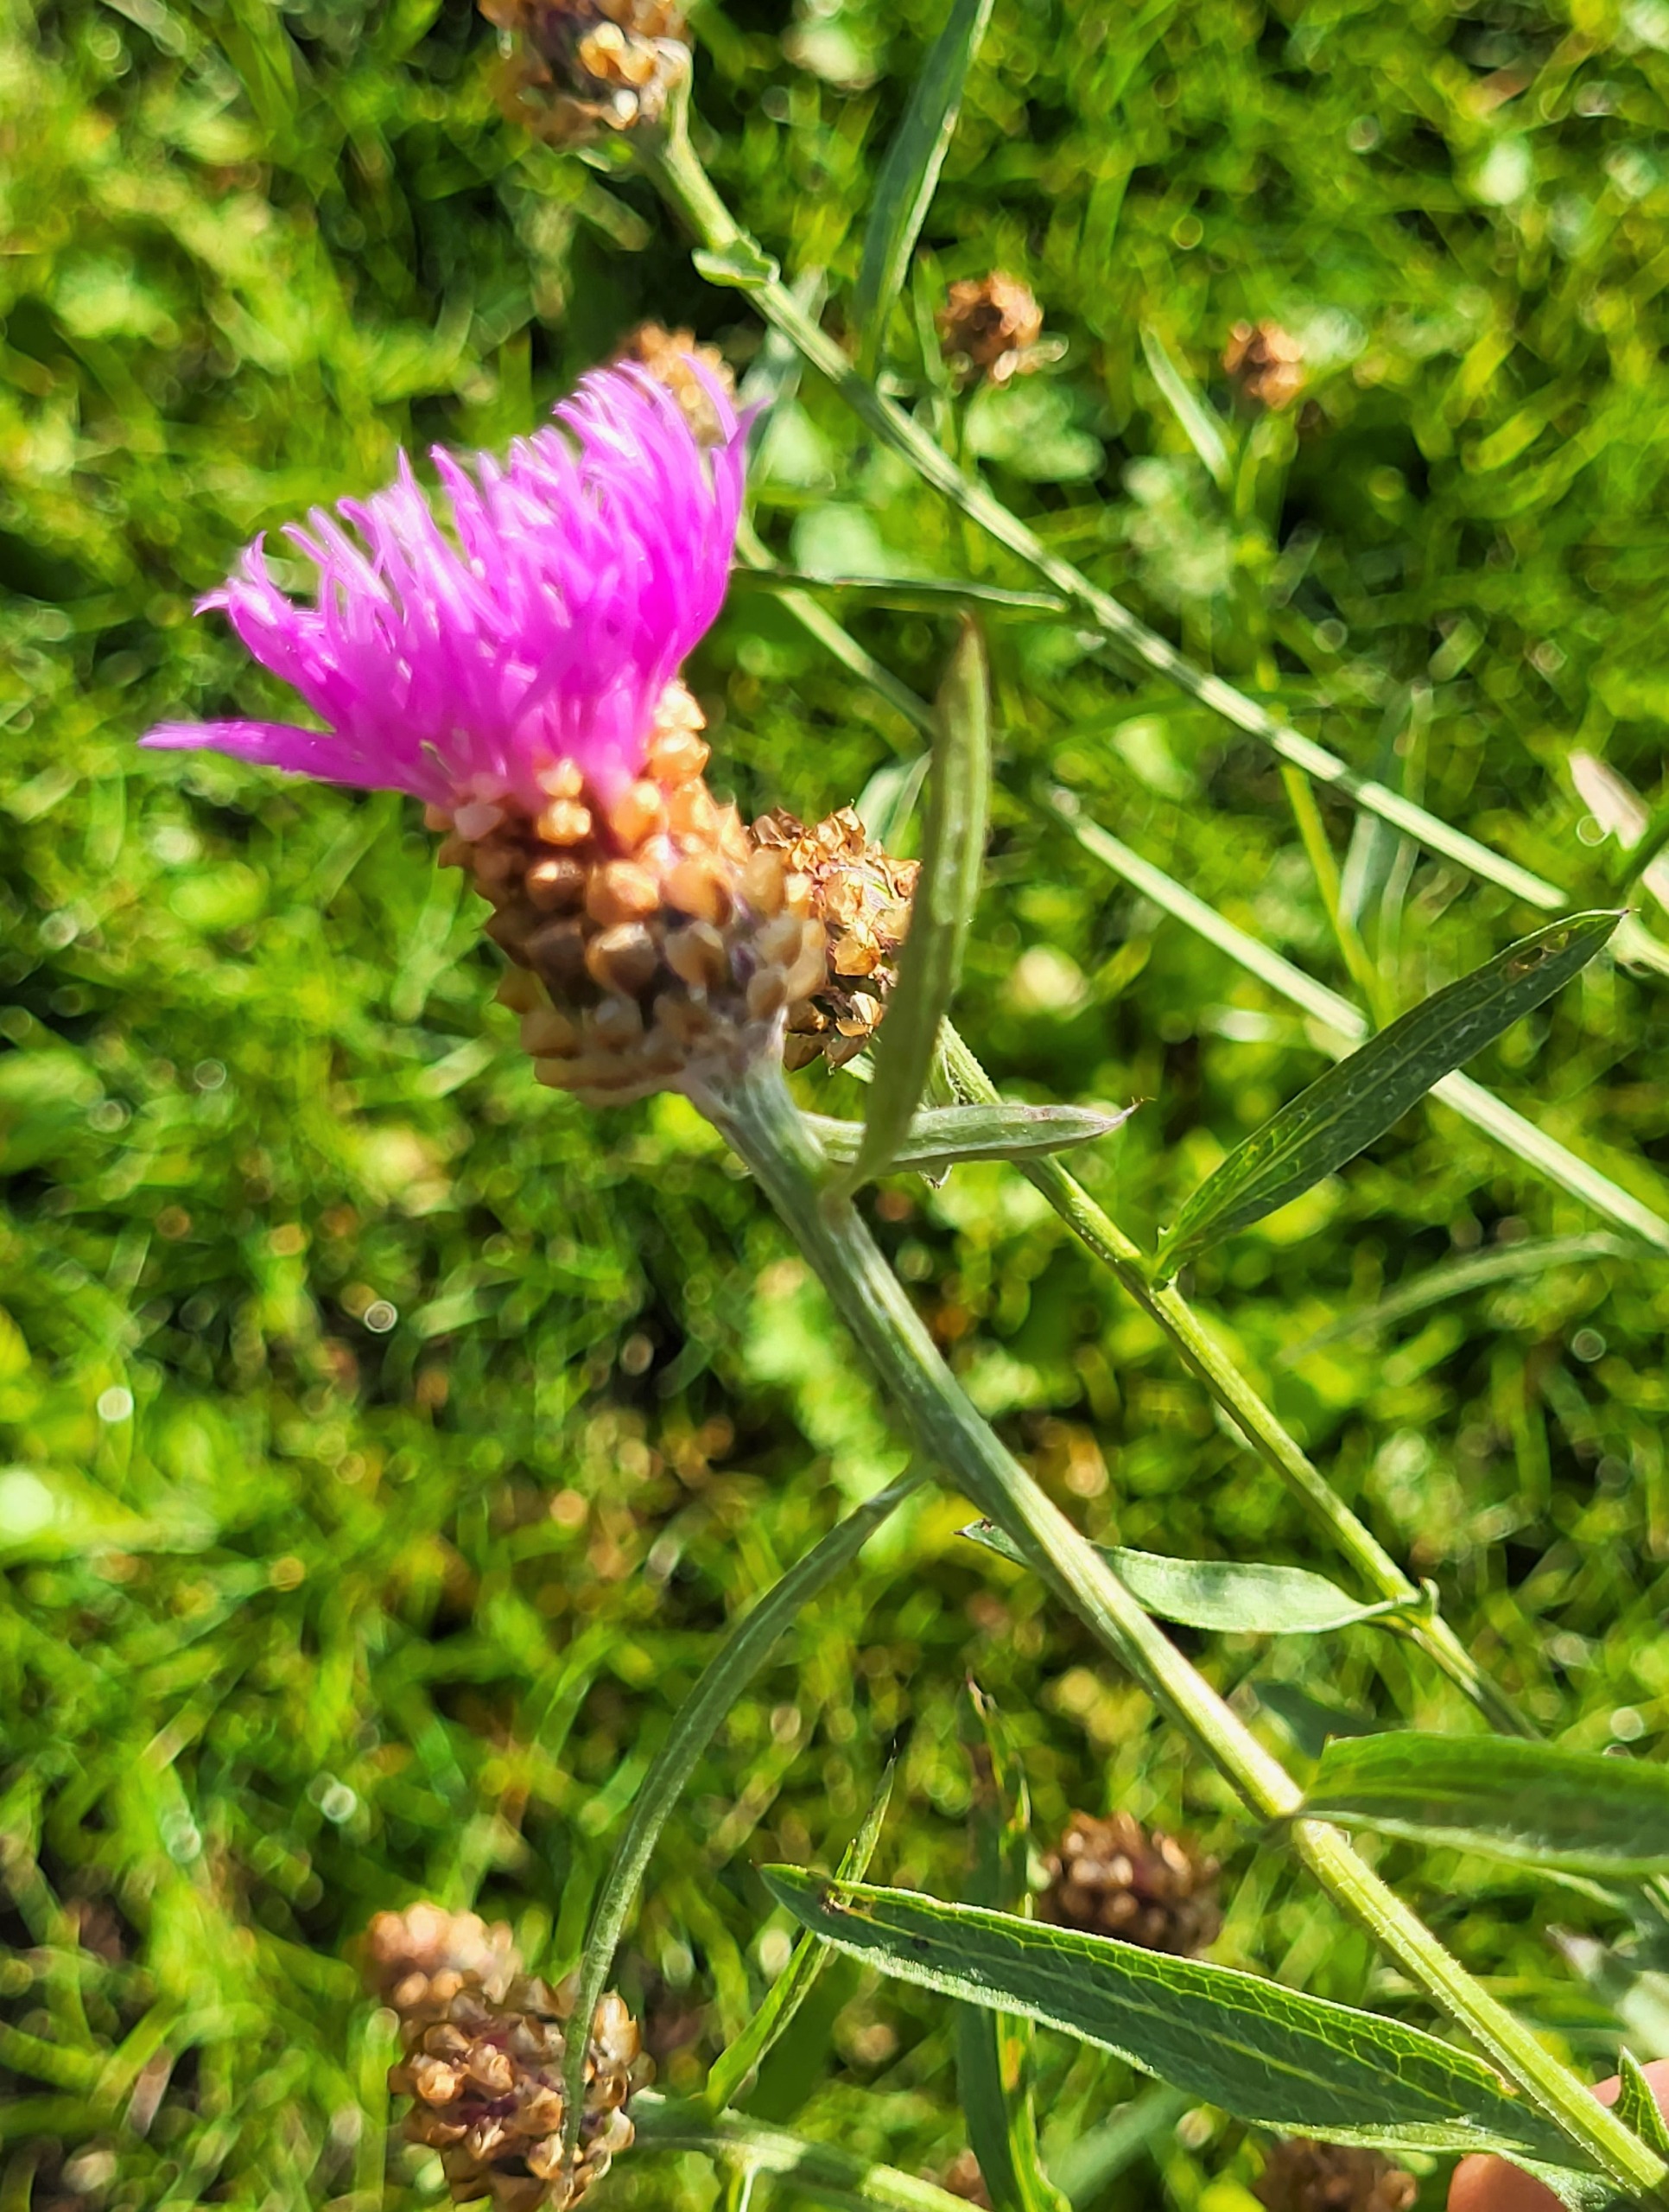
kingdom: Plantae
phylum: Tracheophyta
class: Magnoliopsida
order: Asterales
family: Asteraceae
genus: Centaurea
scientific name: Centaurea jacea
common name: Almindelig knopurt
